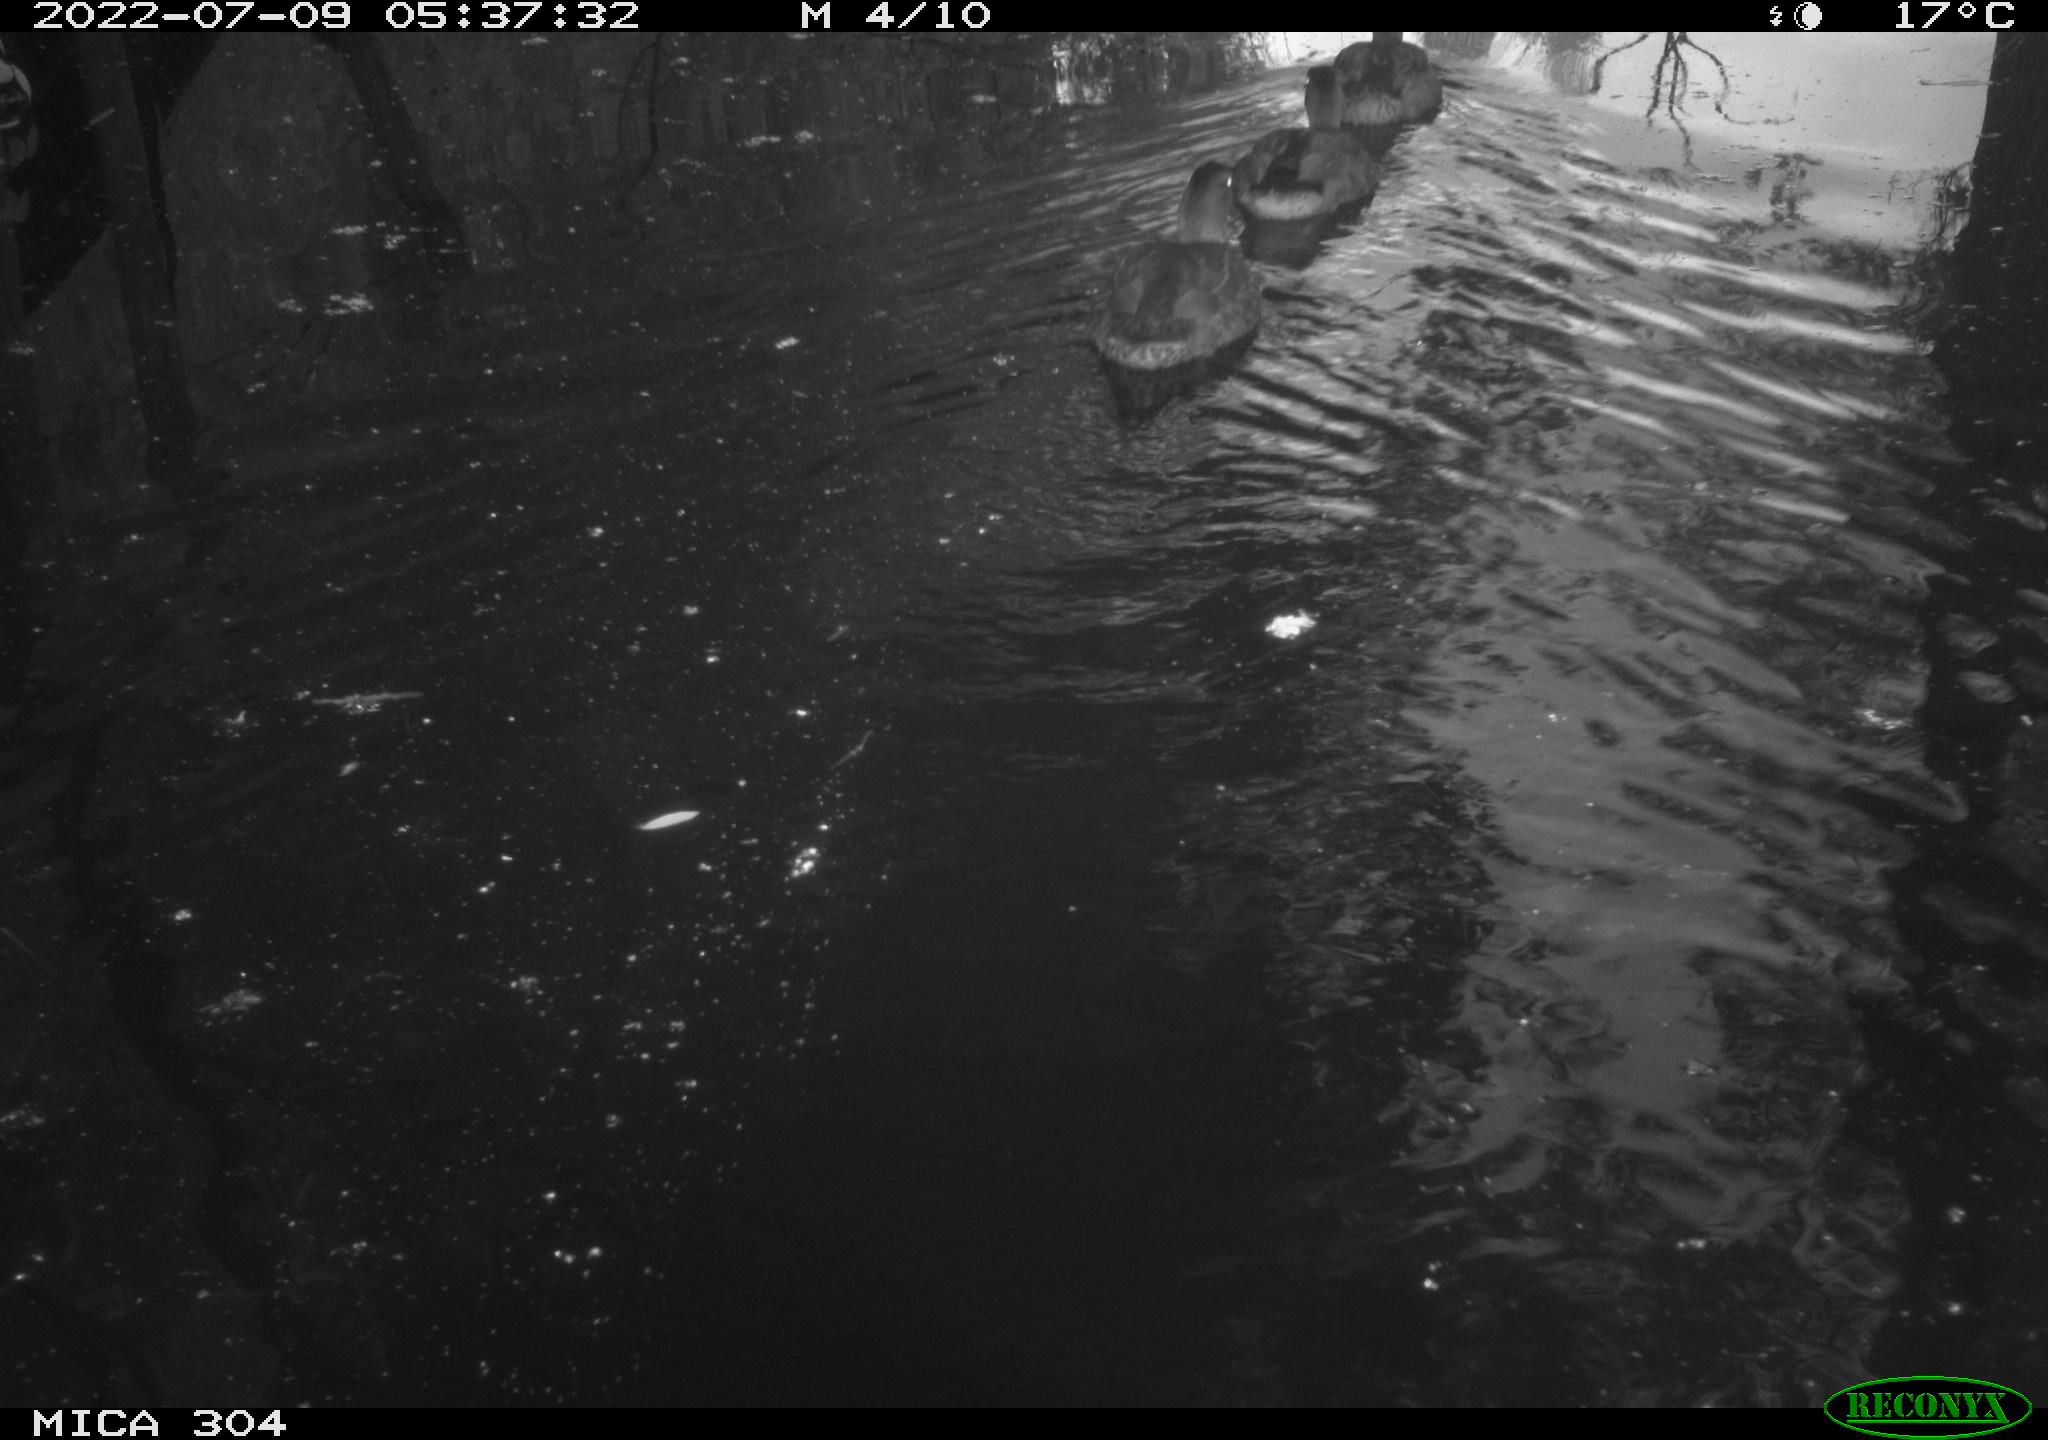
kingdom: Animalia
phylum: Chordata
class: Aves
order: Anseriformes
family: Anatidae
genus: Anas
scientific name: Anas platyrhynchos
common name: Mallard
